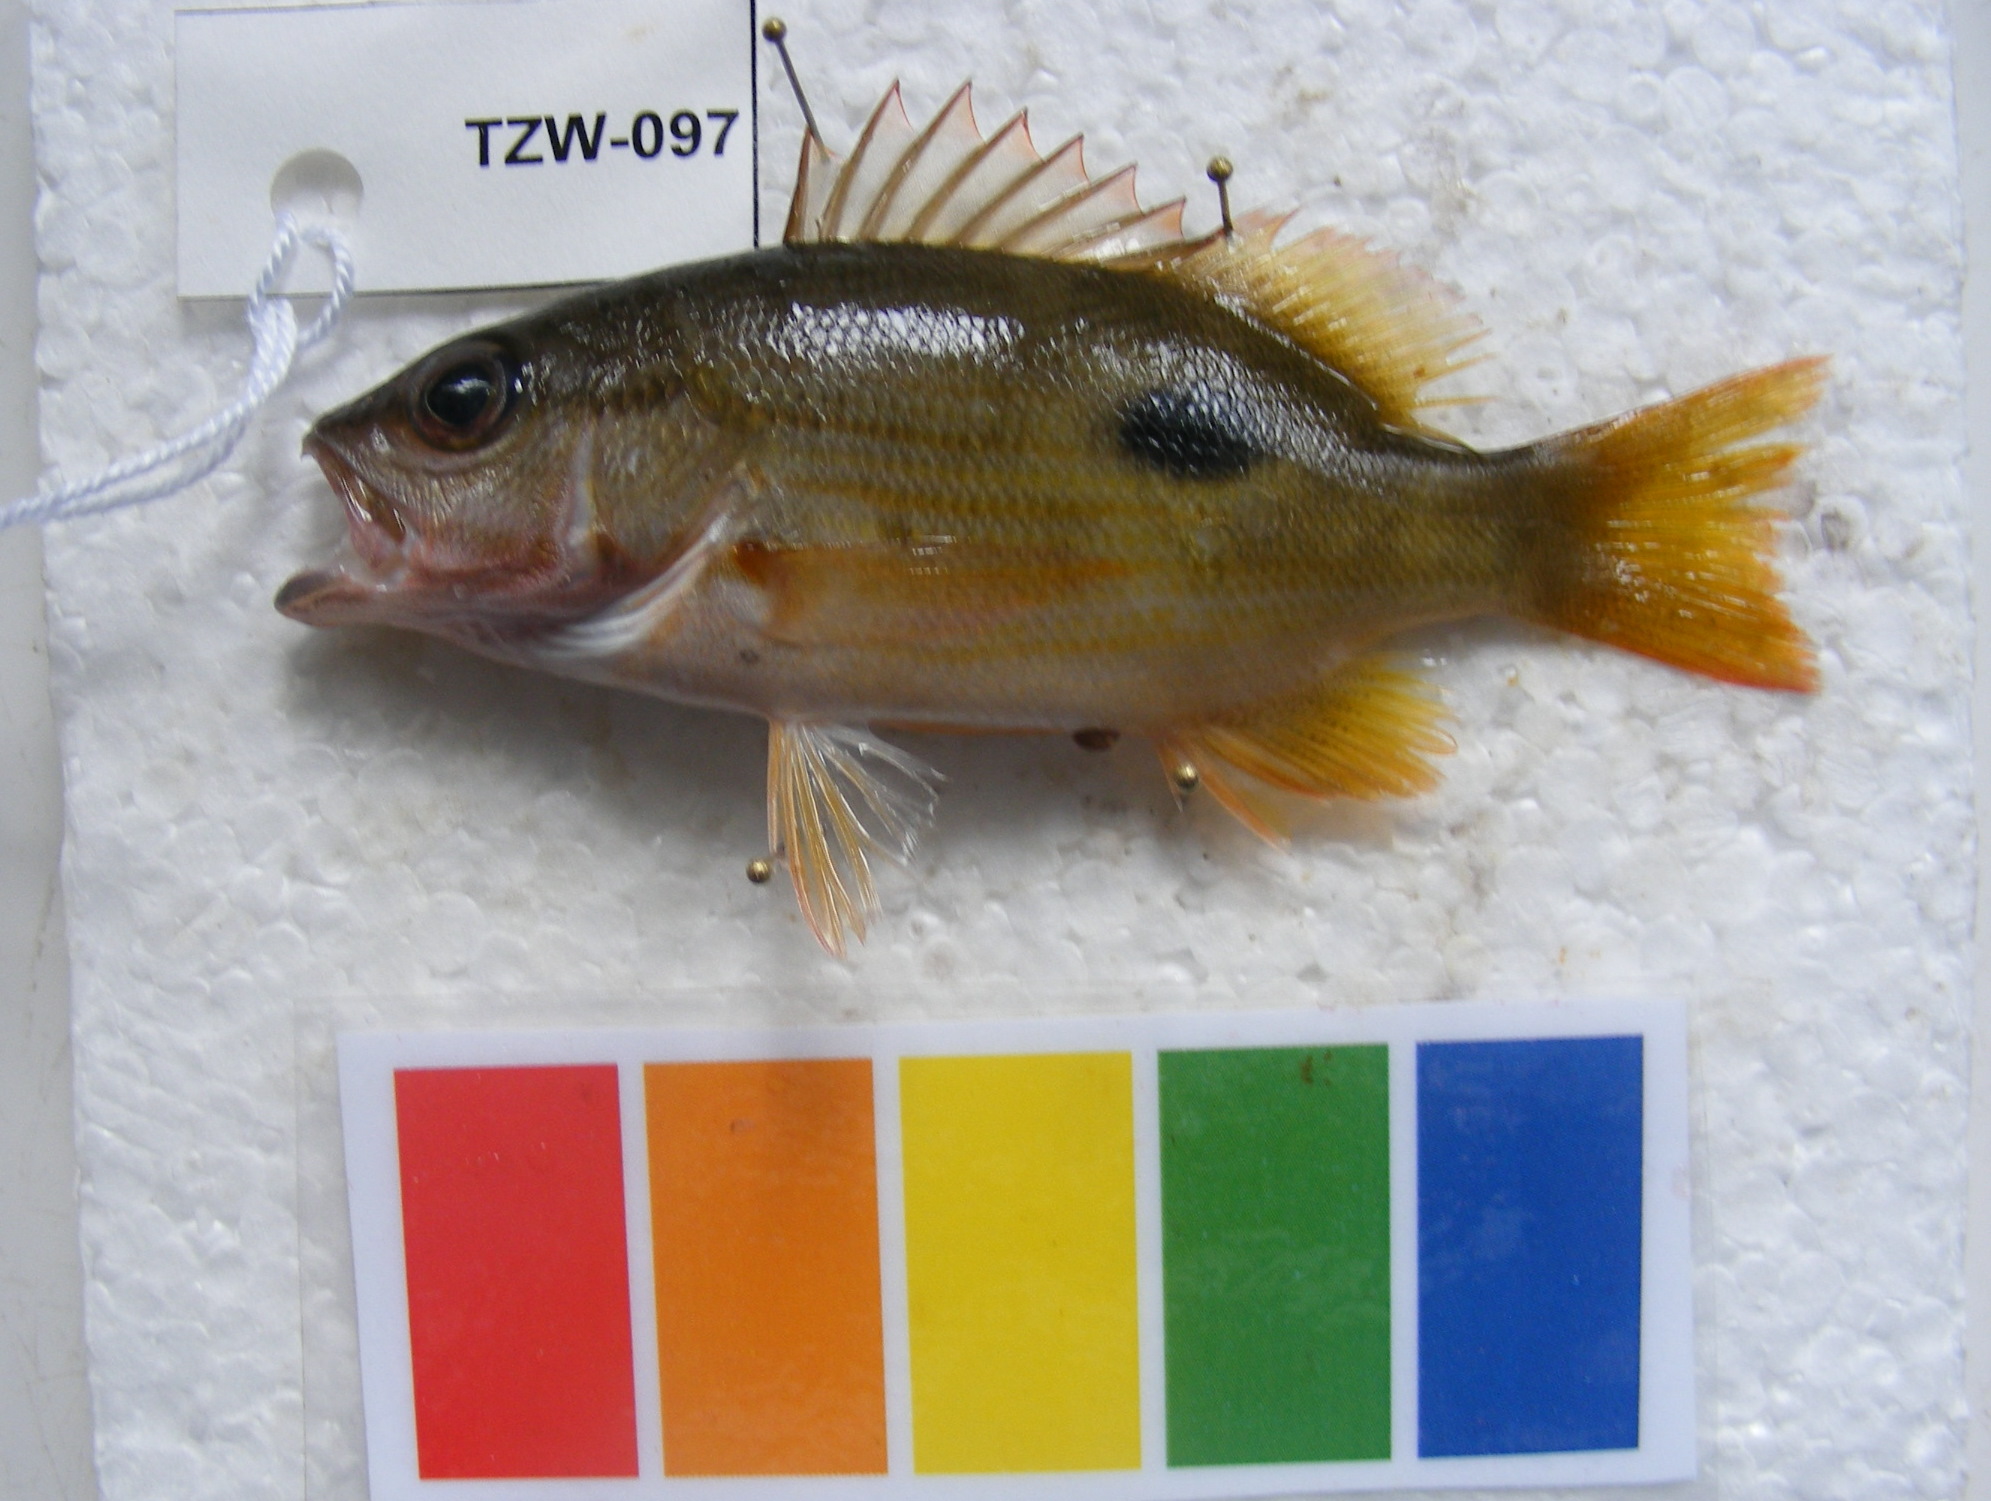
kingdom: Animalia
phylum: Chordata
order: Perciformes
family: Lutjanidae
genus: Lutjanus
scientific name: Lutjanus fulviflamma
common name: Blackspot snapper
